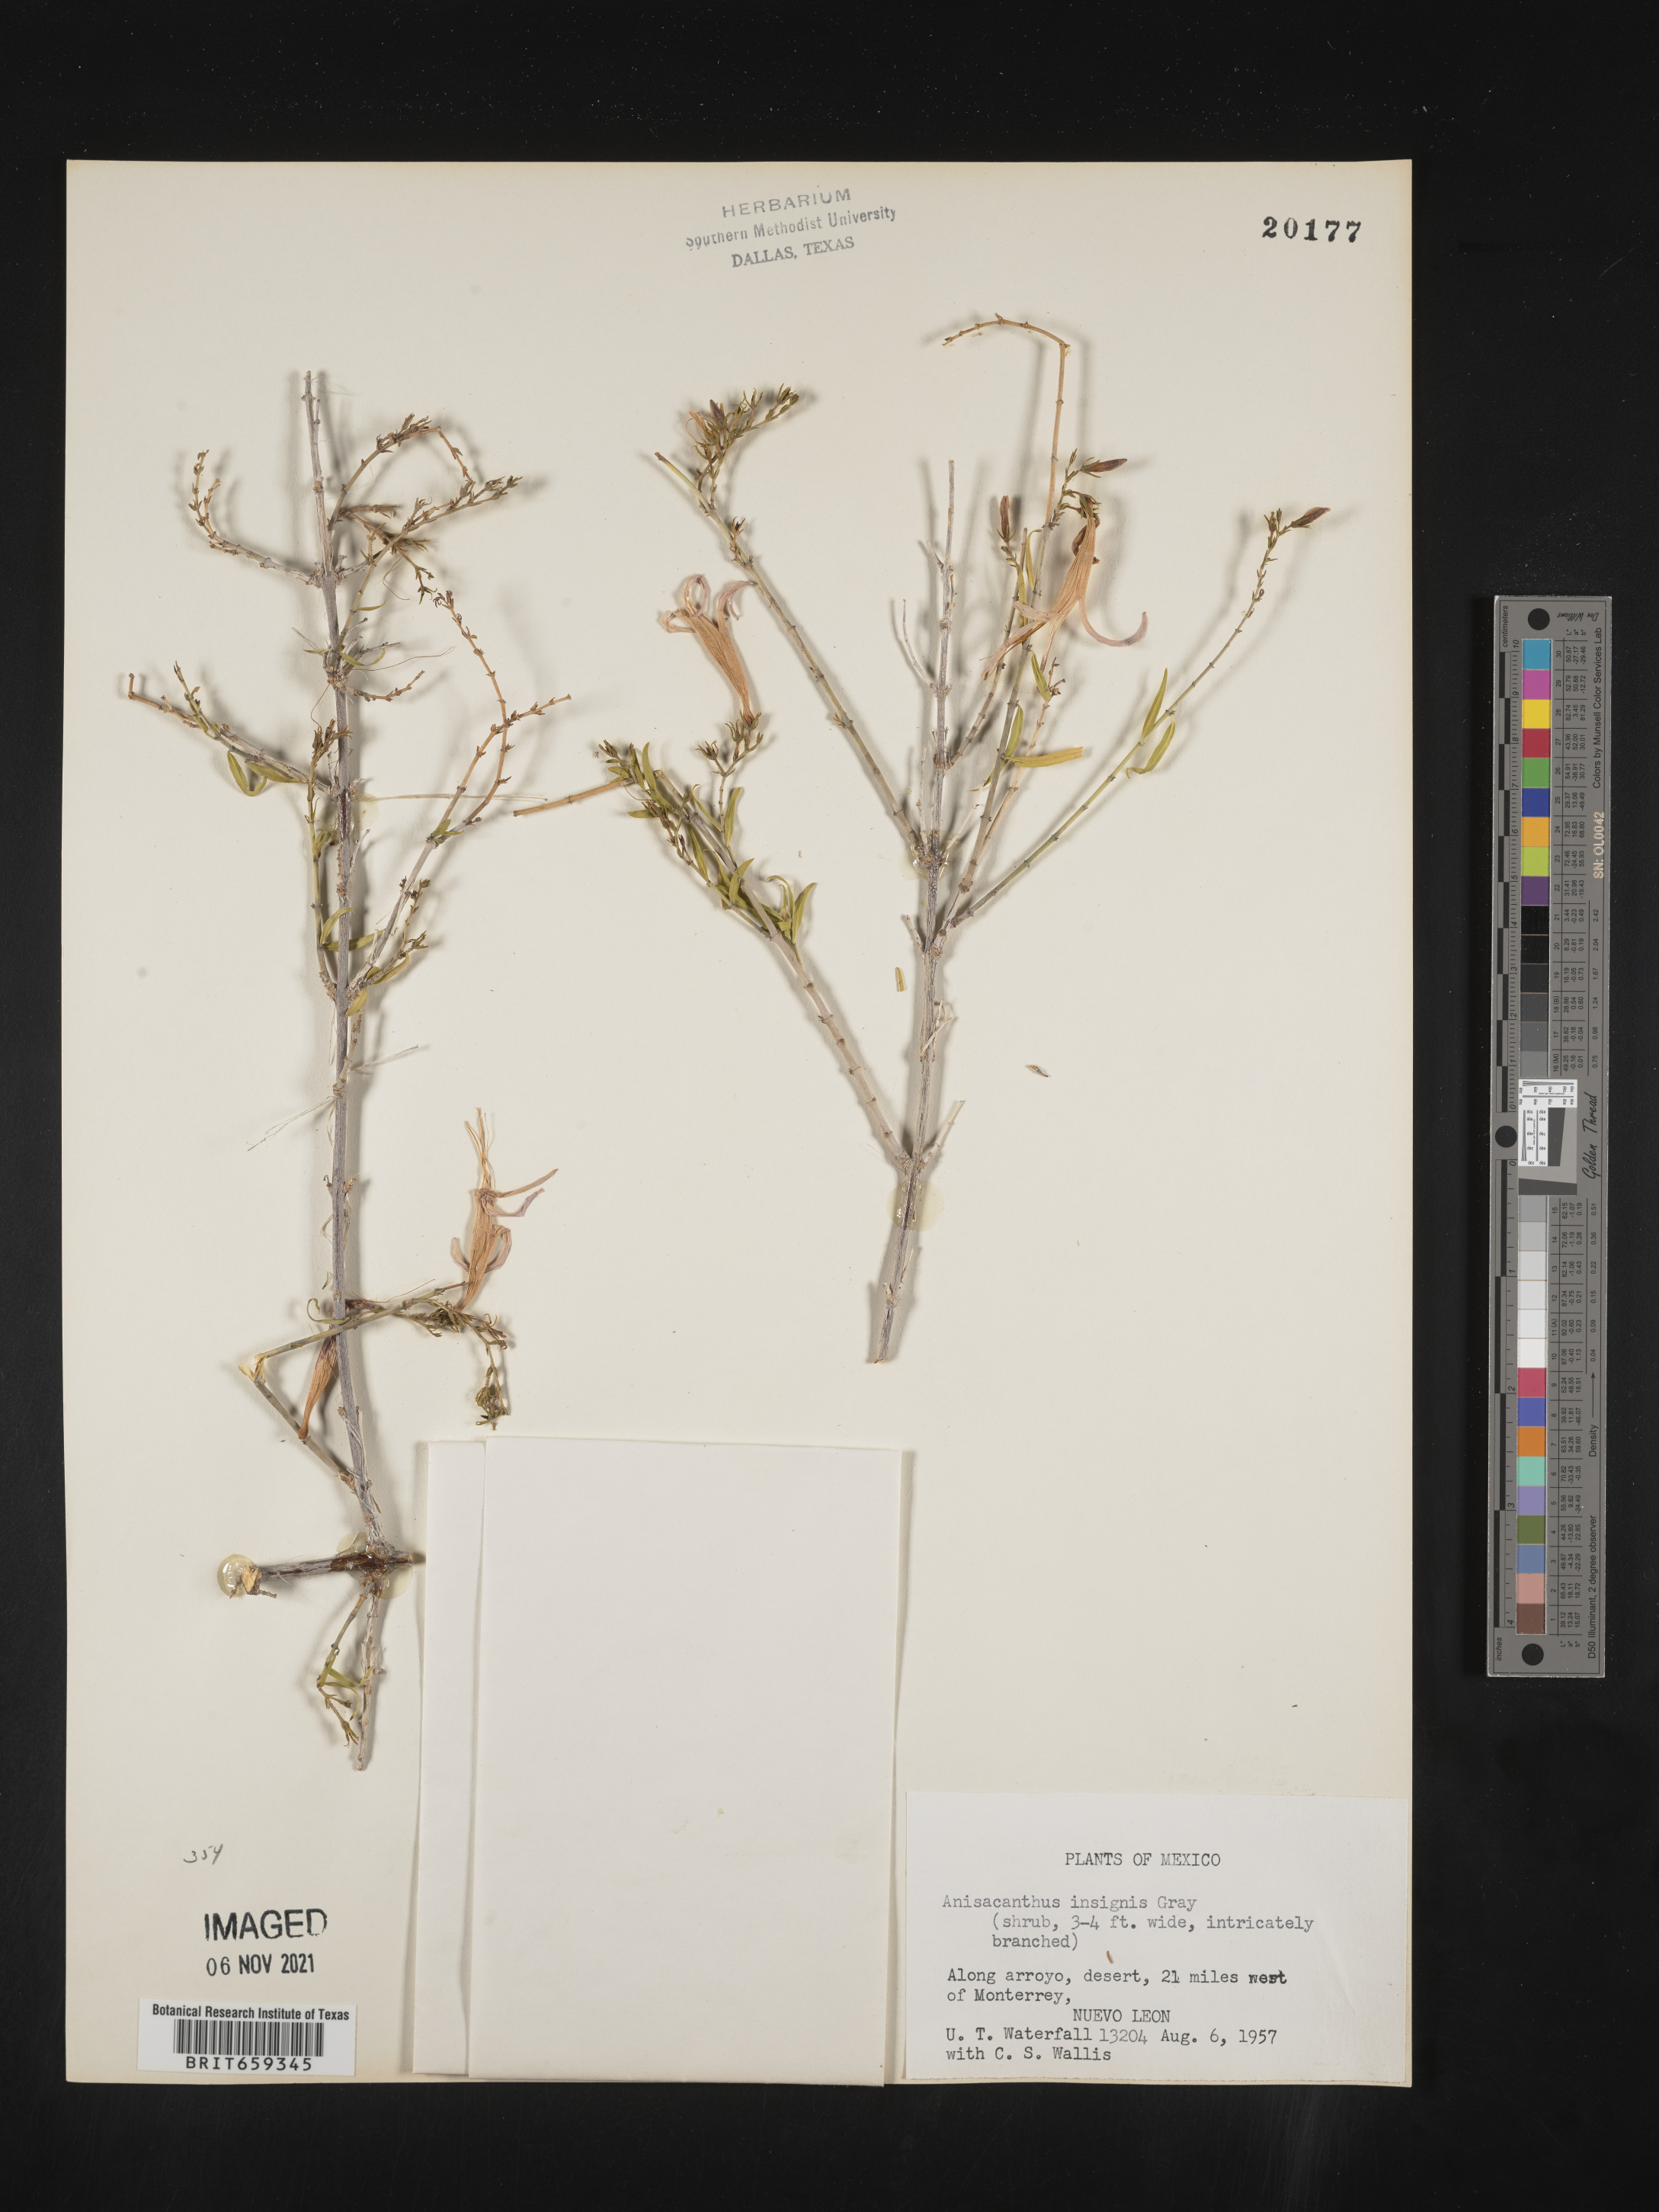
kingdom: Plantae
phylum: Tracheophyta
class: Magnoliopsida
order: Lamiales
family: Acanthaceae
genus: Anisacanthus
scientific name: Anisacanthus
